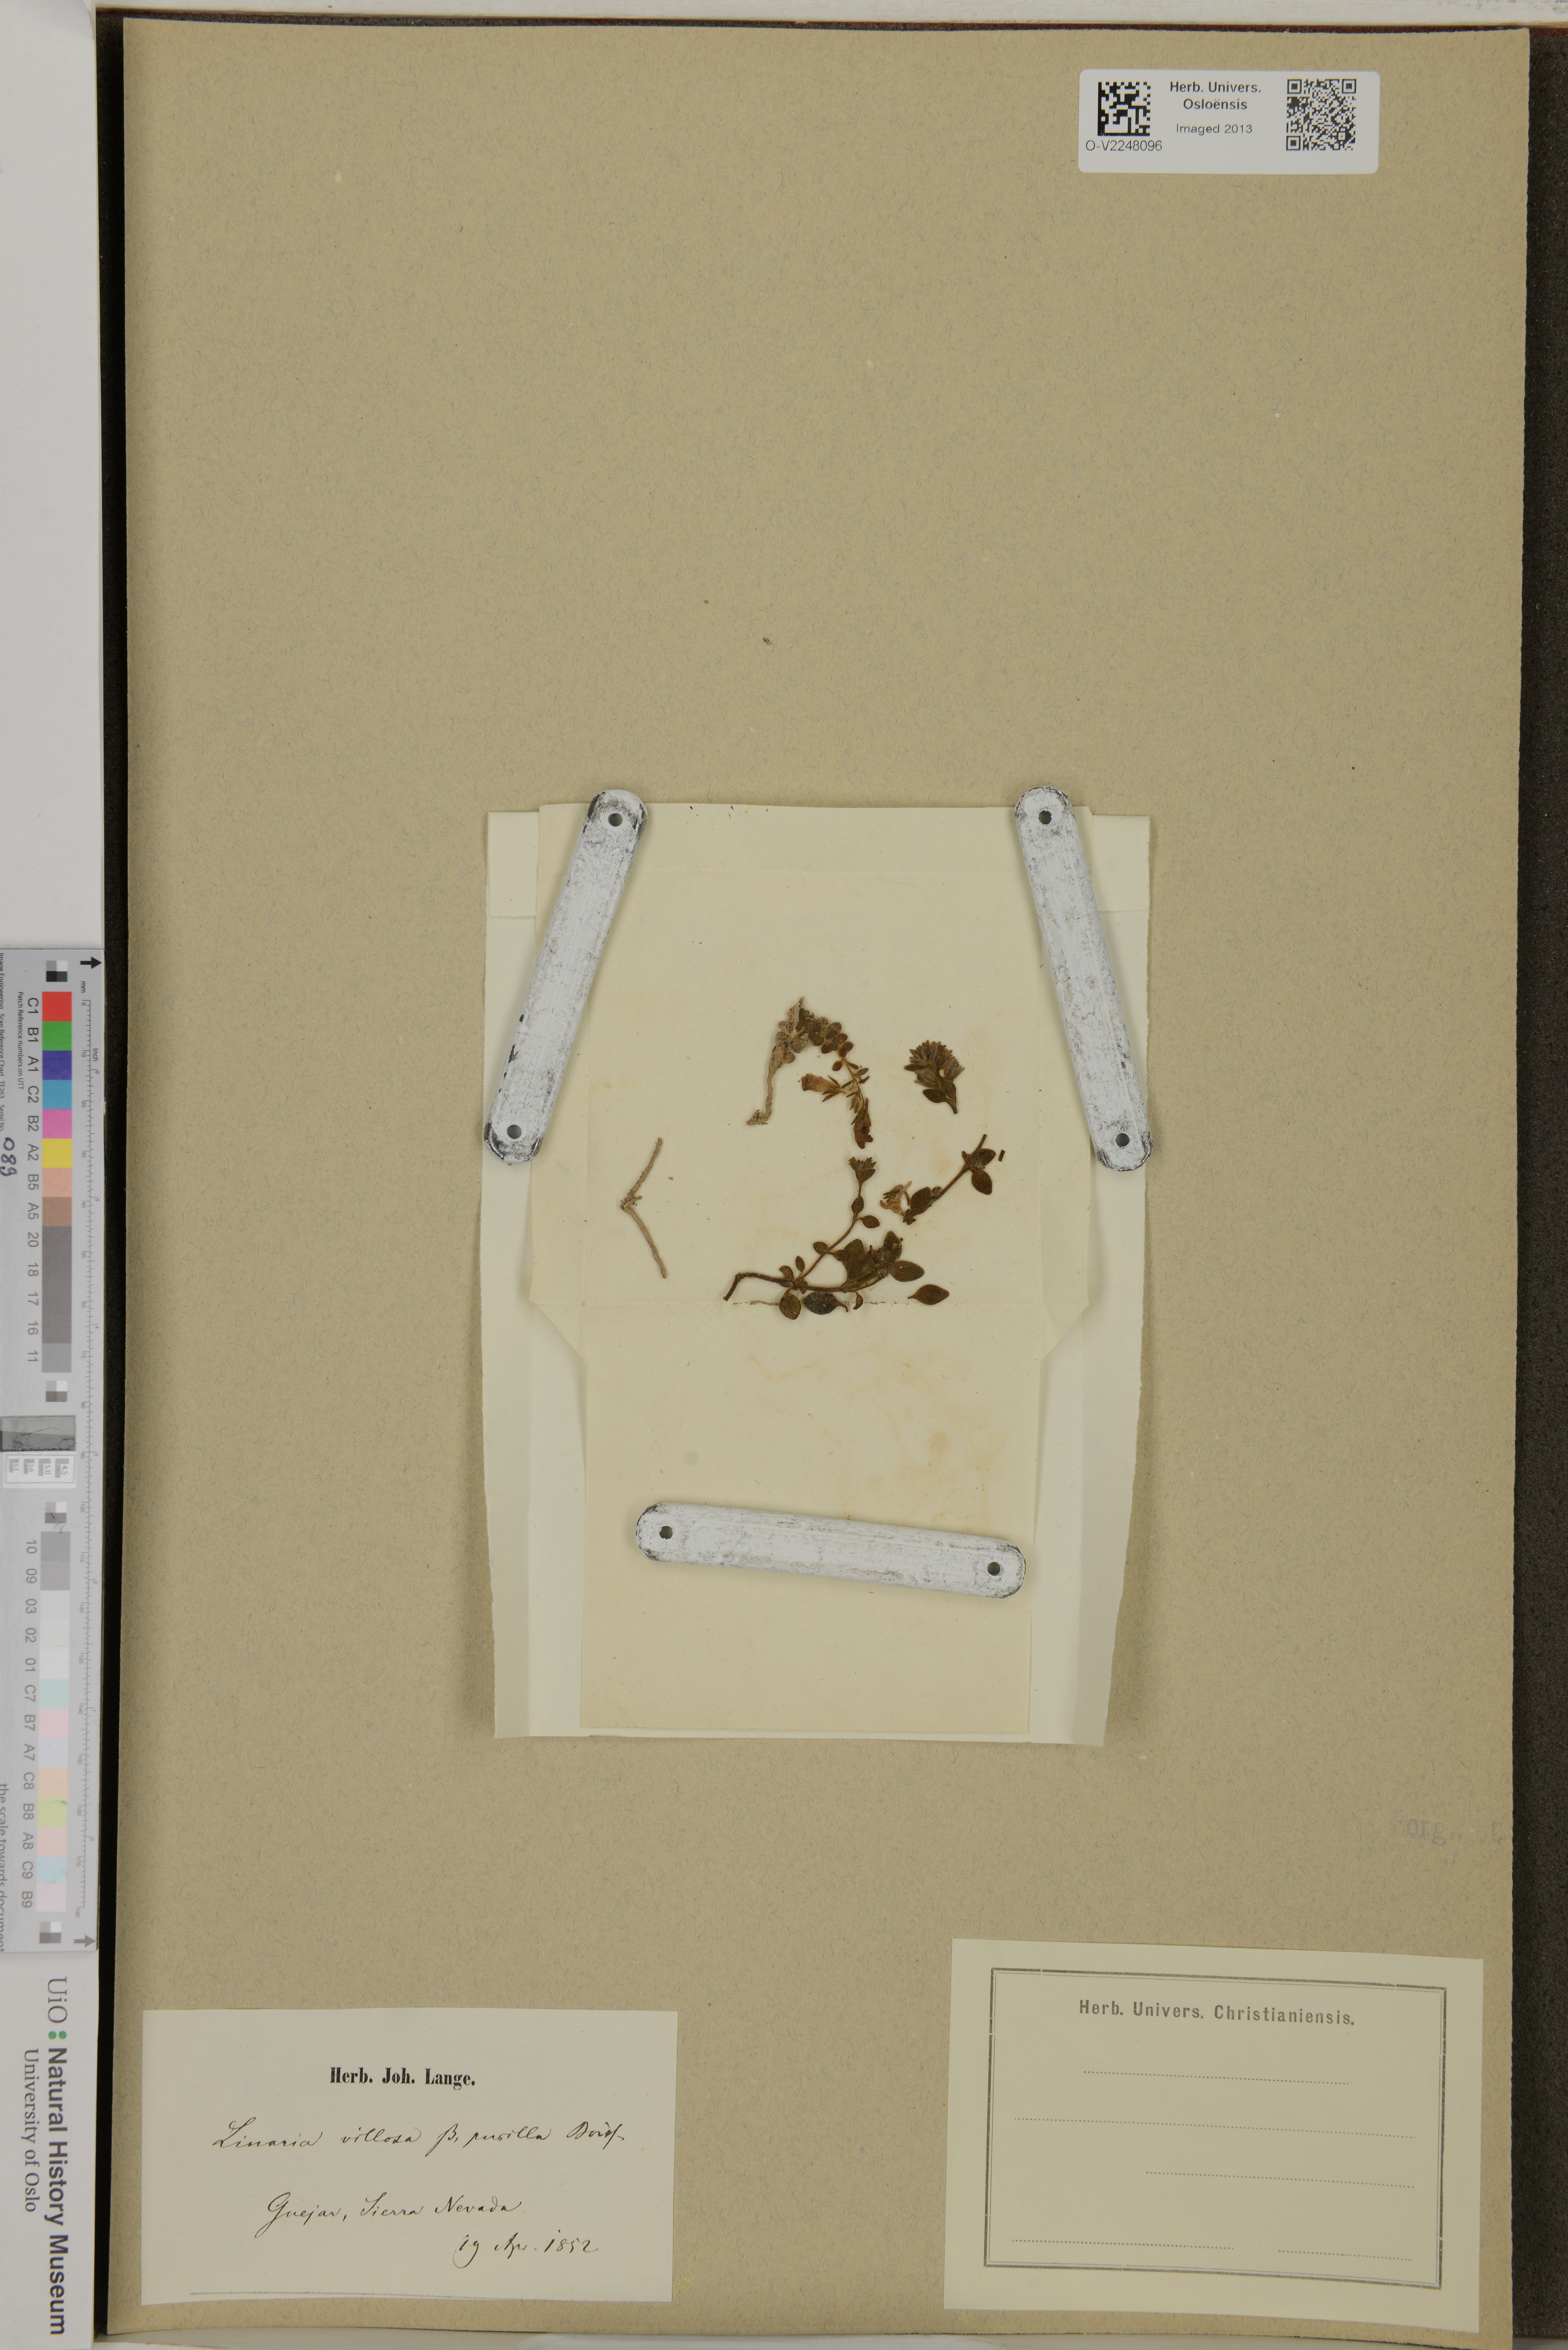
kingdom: Plantae
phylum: Tracheophyta
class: Magnoliopsida
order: Lamiales
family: Plantaginaceae
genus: Linaria
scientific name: Linaria hirta
